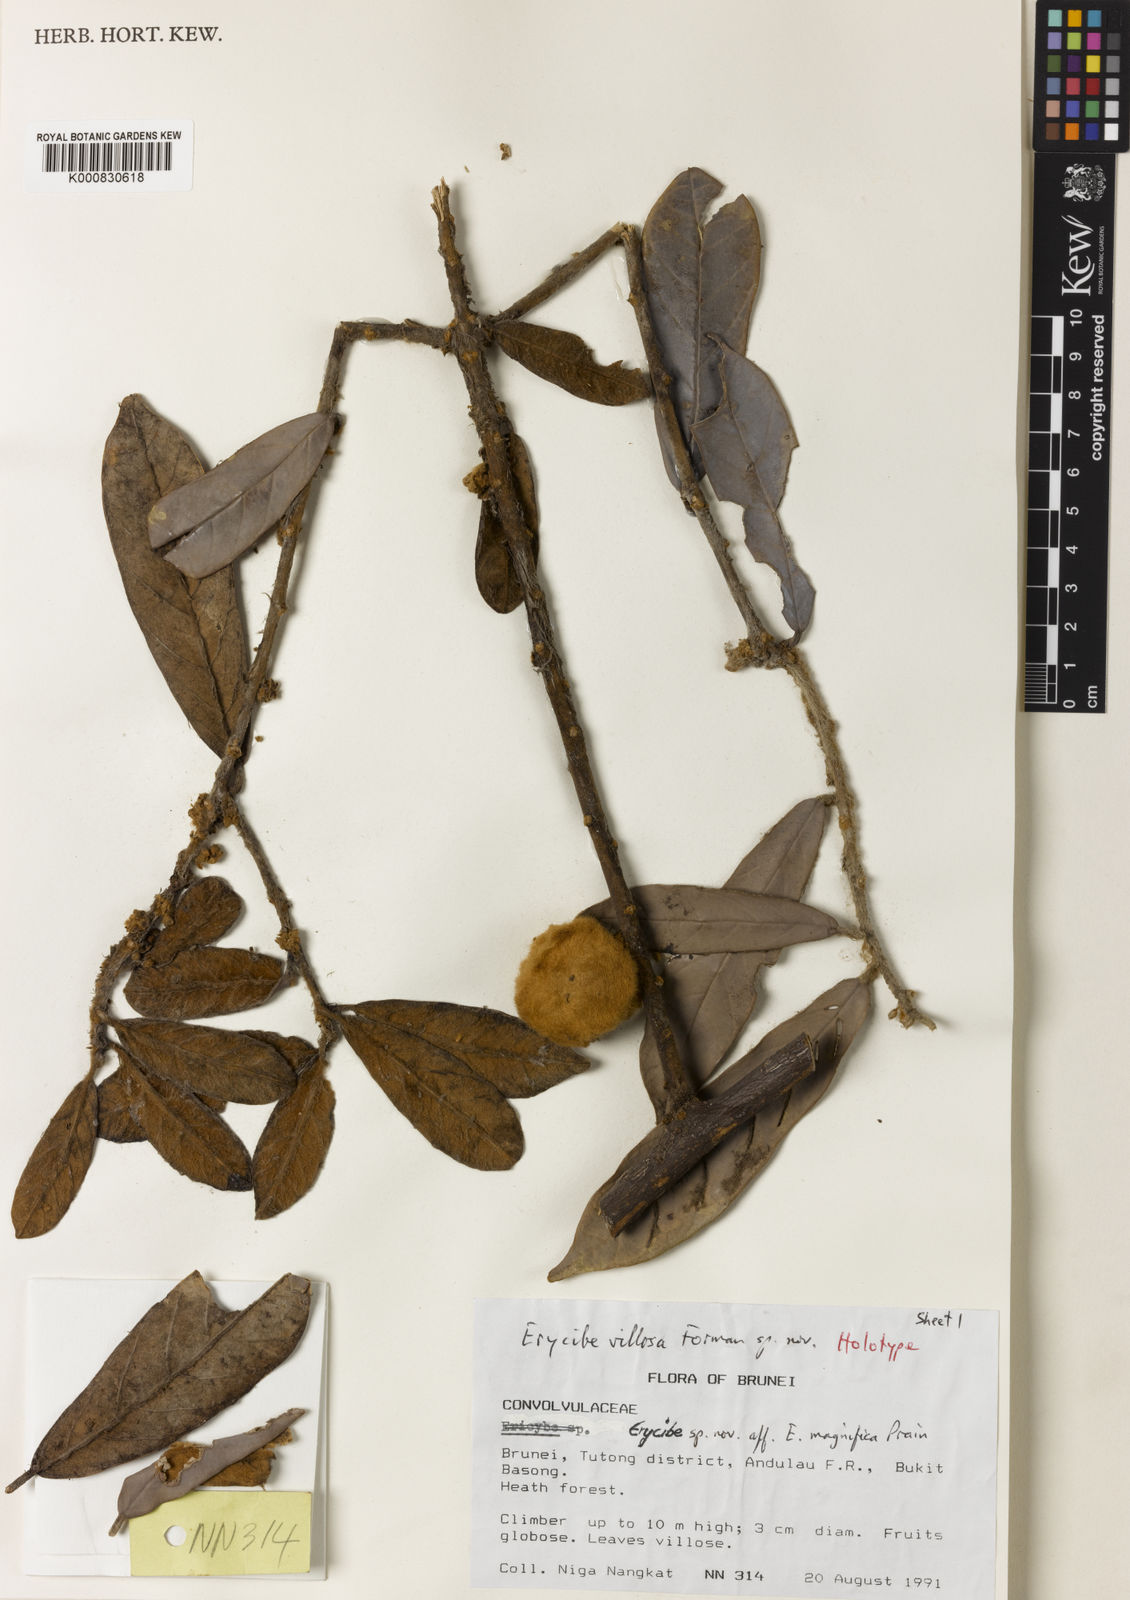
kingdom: Plantae
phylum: Tracheophyta
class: Magnoliopsida
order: Solanales
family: Convolvulaceae
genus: Erycibe
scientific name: Erycibe villosa
